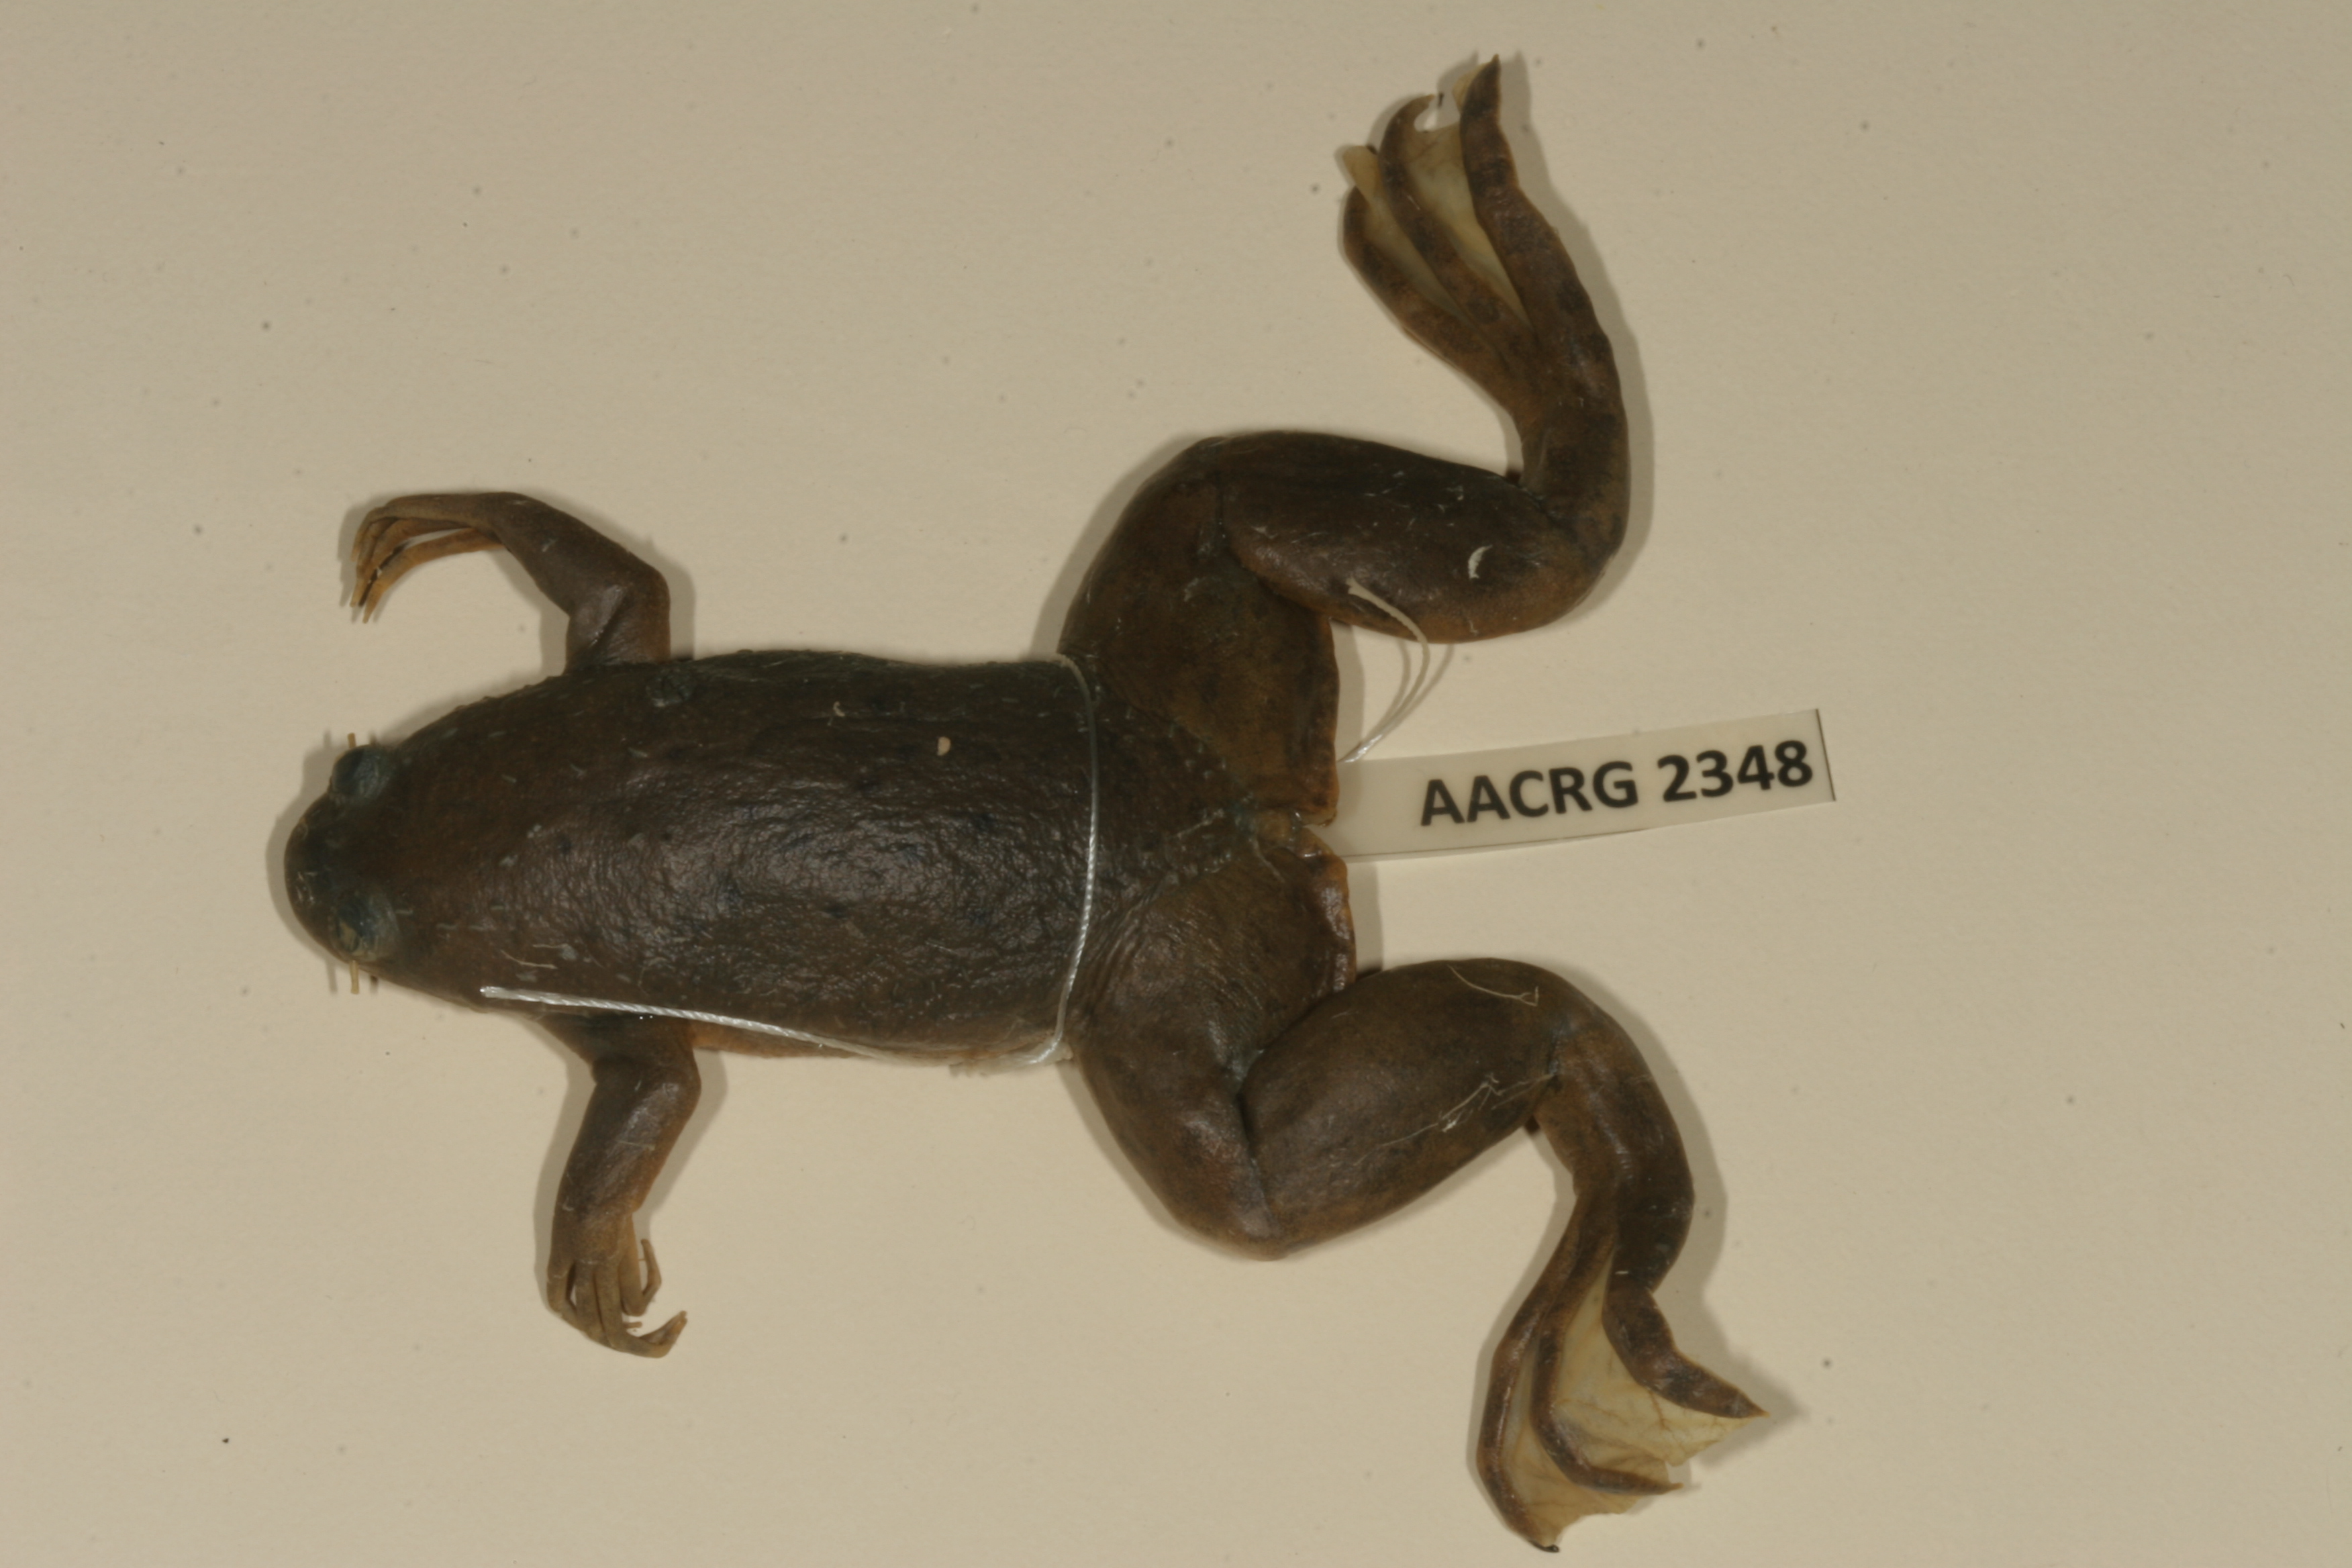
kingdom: Animalia
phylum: Chordata
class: Amphibia
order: Anura
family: Pipidae
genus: Xenopus
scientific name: Xenopus muelleri
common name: Muller's clawed frog
